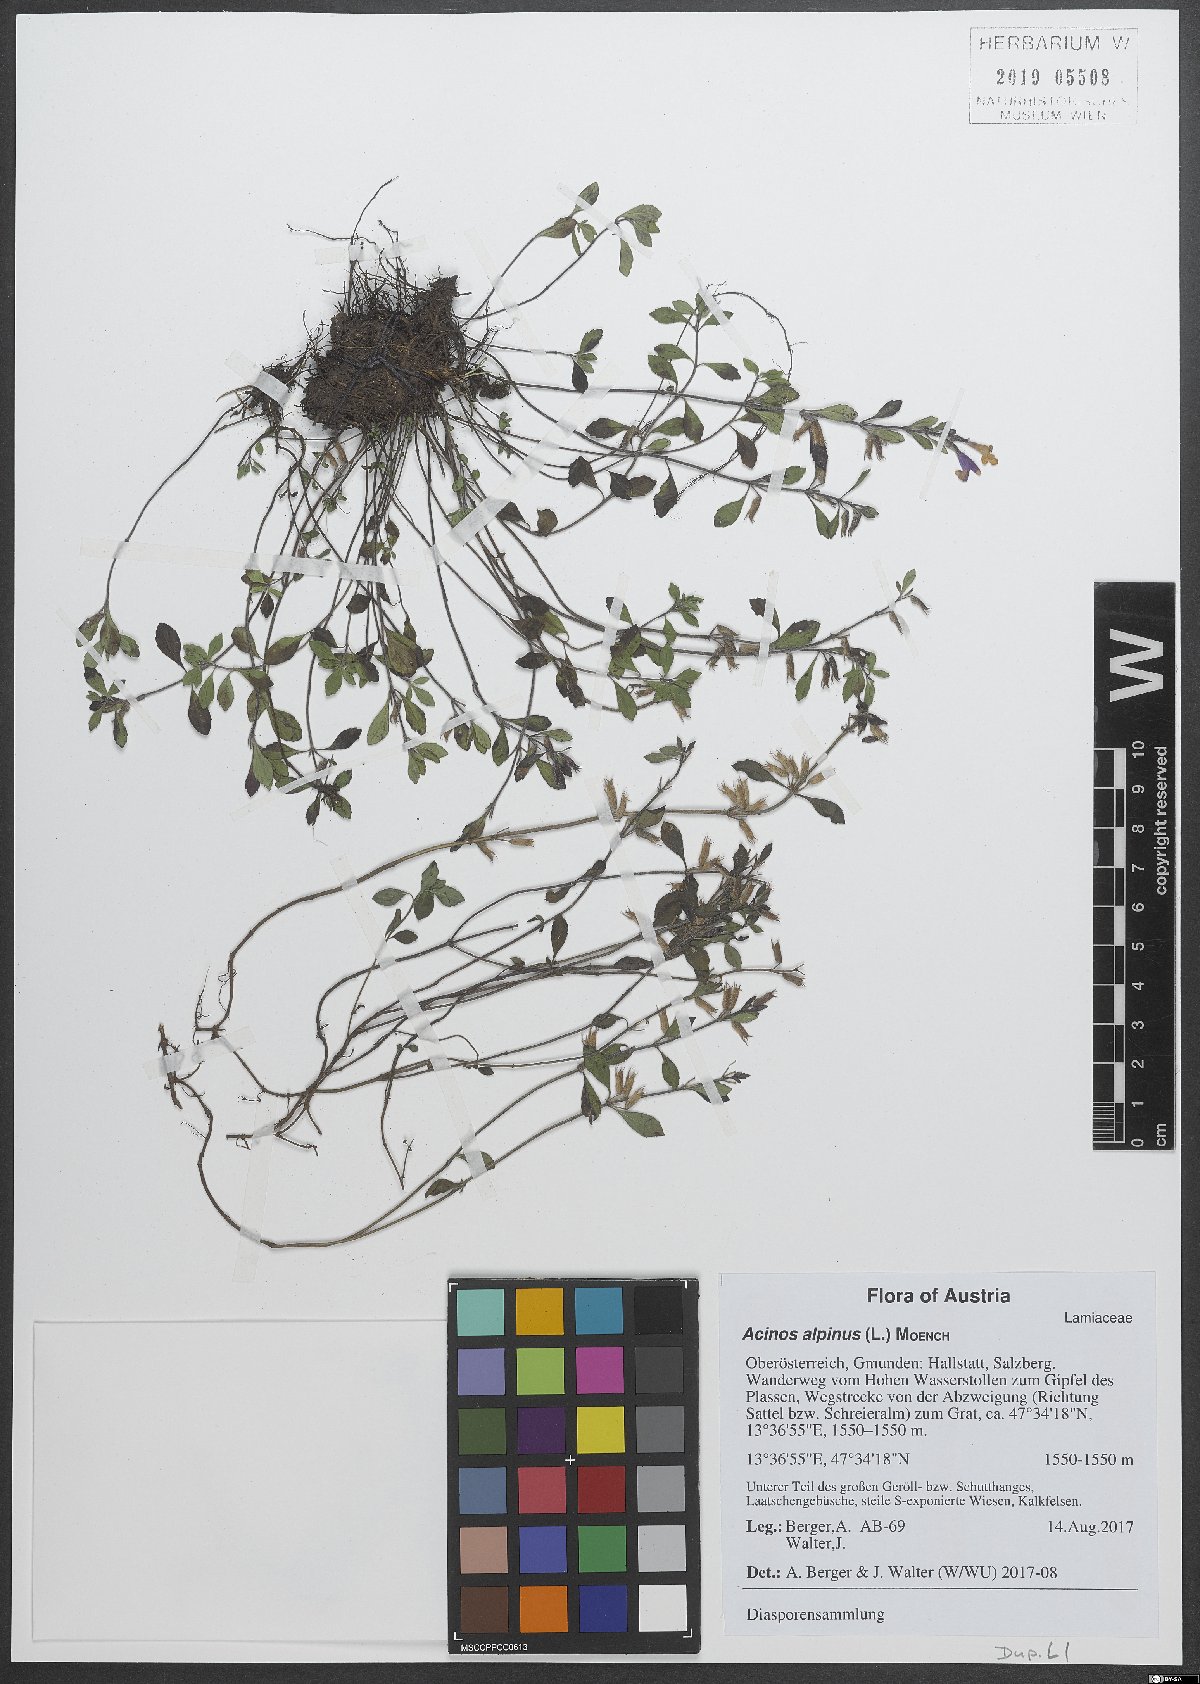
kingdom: Plantae
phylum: Tracheophyta
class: Magnoliopsida
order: Lamiales
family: Lamiaceae
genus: Clinopodium
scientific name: Clinopodium alpinum
